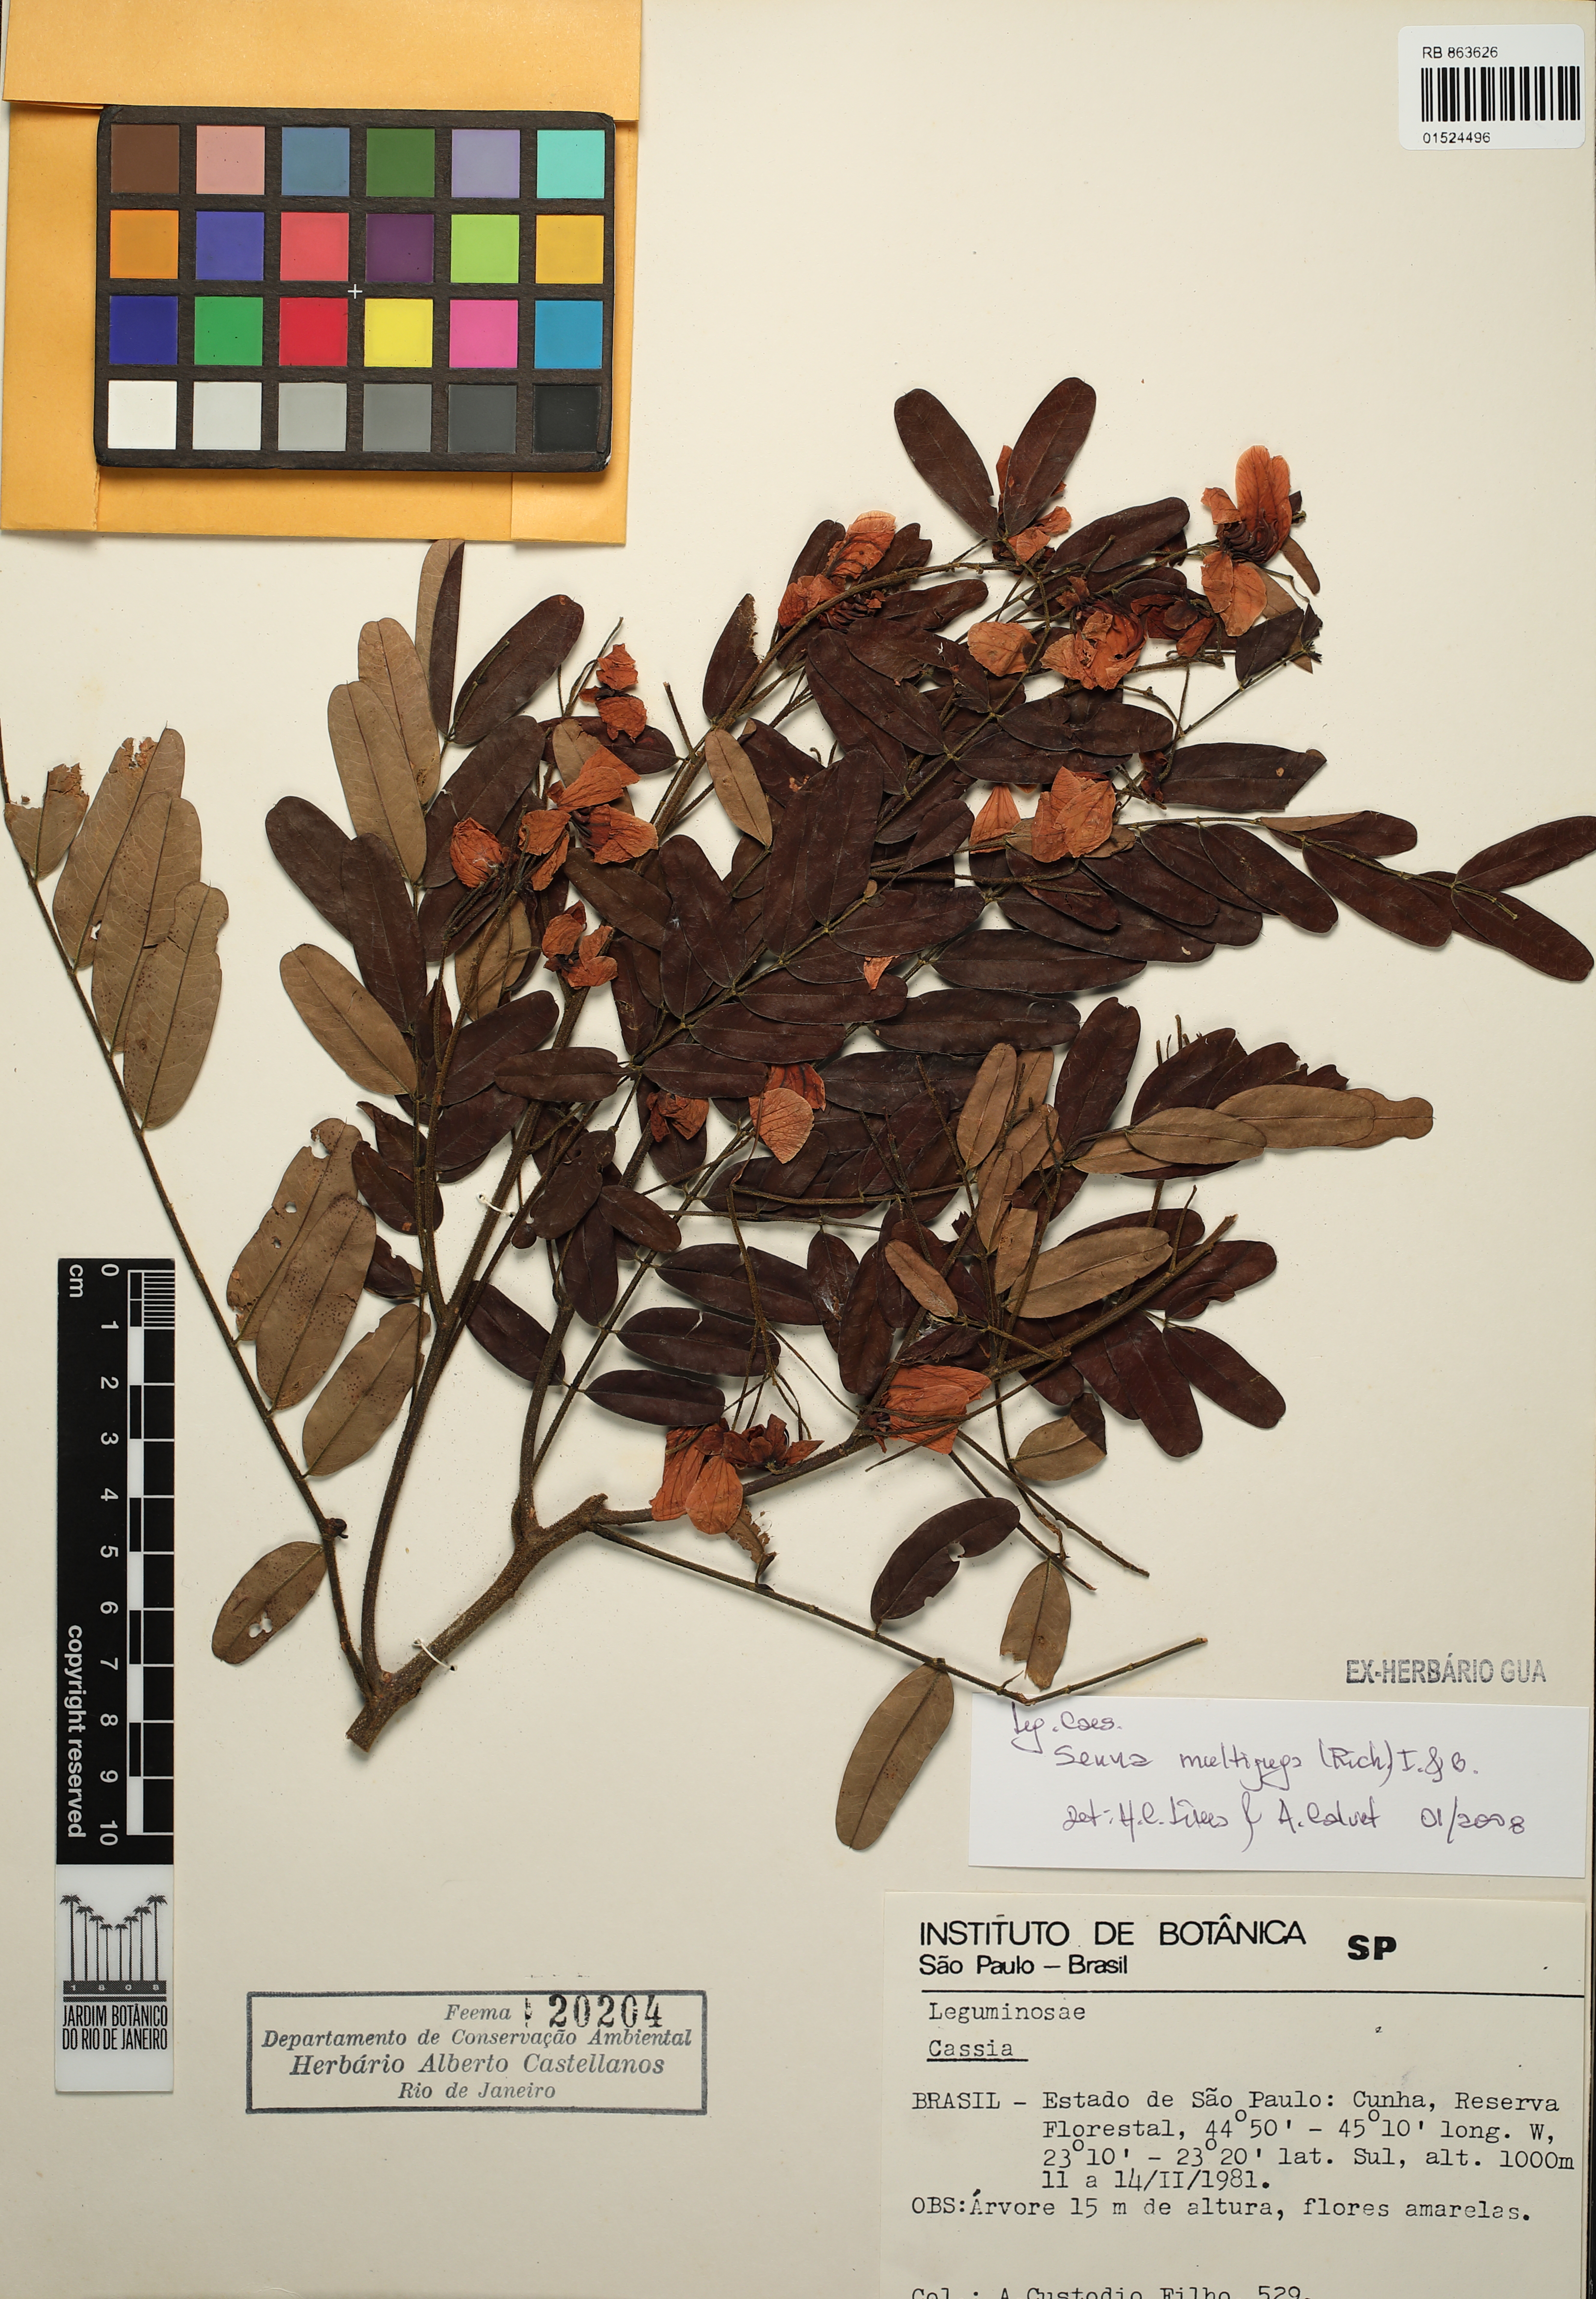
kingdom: Plantae
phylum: Tracheophyta
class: Magnoliopsida
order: Fabales
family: Fabaceae
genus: Senna
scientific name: Senna multijuga
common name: False sicklepod
